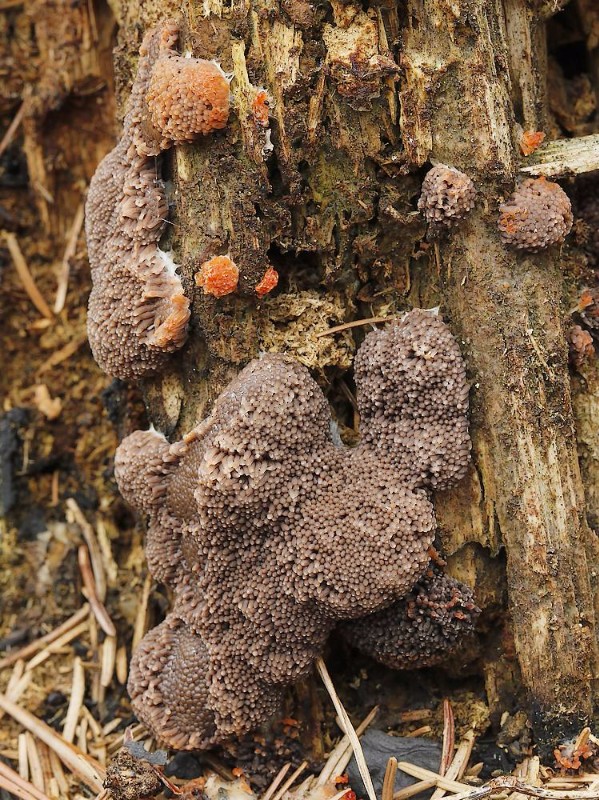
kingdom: Protozoa
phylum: Mycetozoa
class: Myxomycetes
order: Cribrariales
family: Tubiferaceae
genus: Tubifera
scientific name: Tubifera ferruginosa
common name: kanel-støvrør
